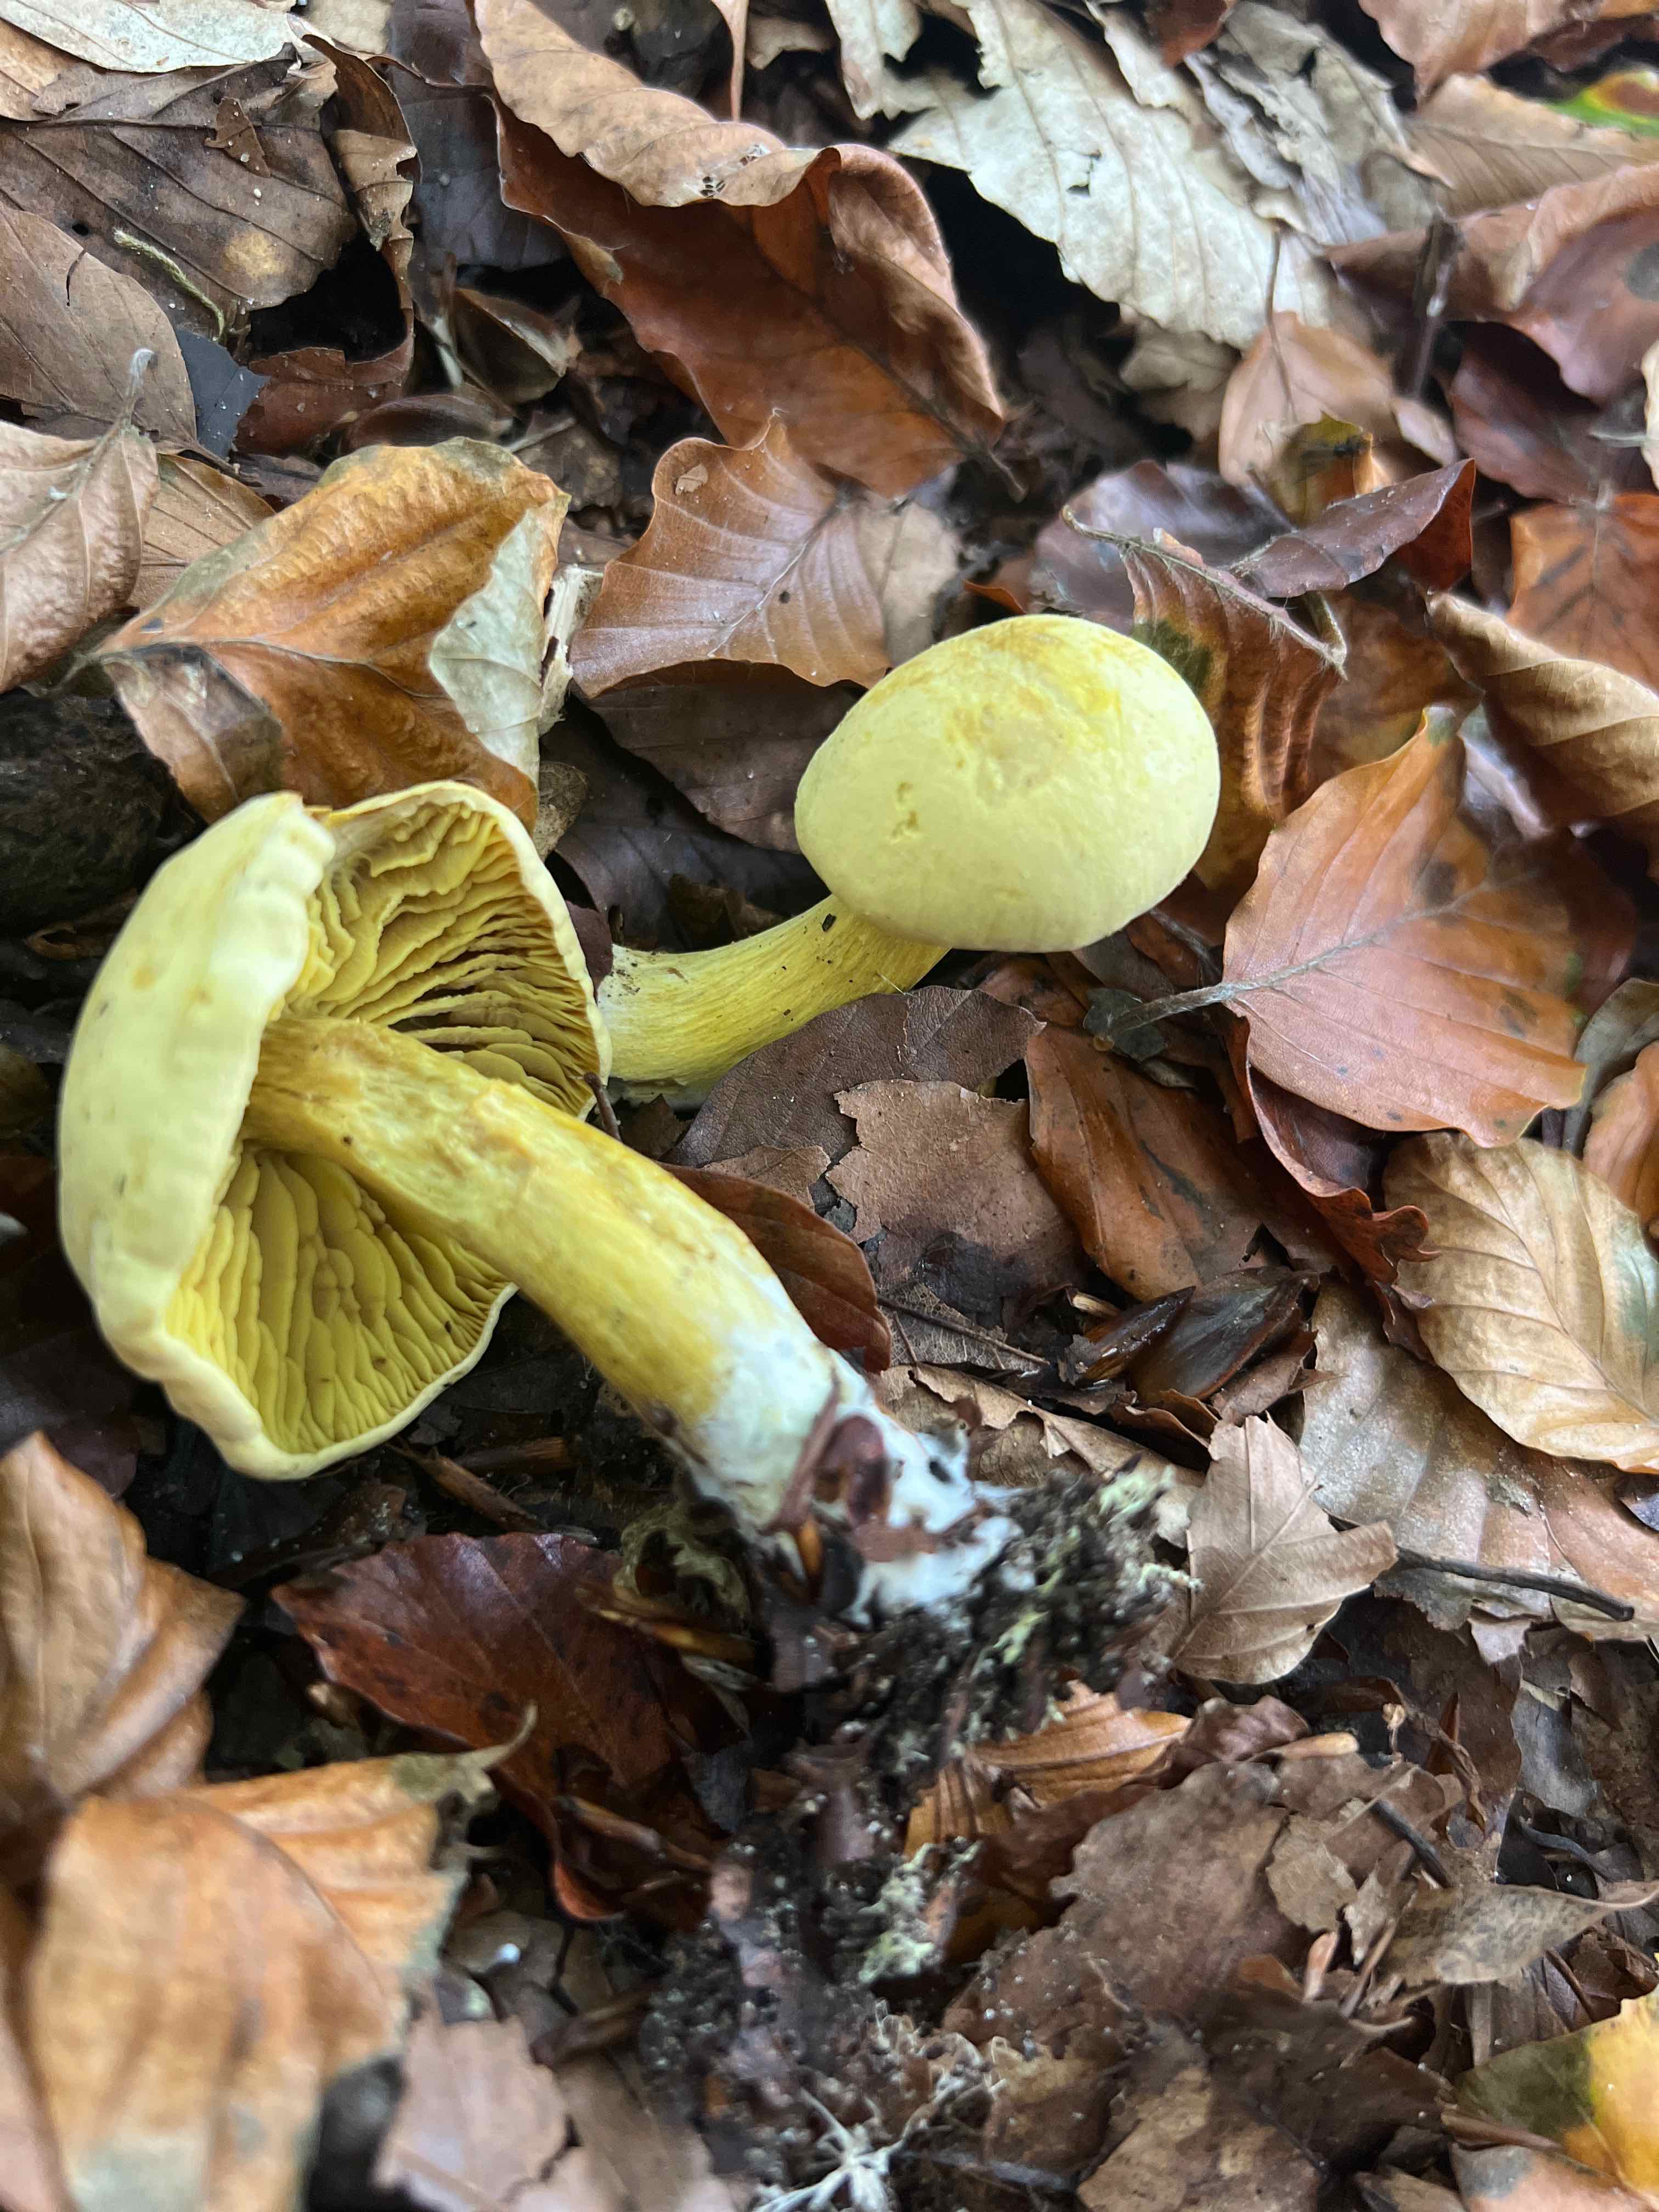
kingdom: Fungi
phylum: Basidiomycota
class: Agaricomycetes
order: Agaricales
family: Tricholomataceae
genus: Tricholoma
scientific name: Tricholoma sulphureum
